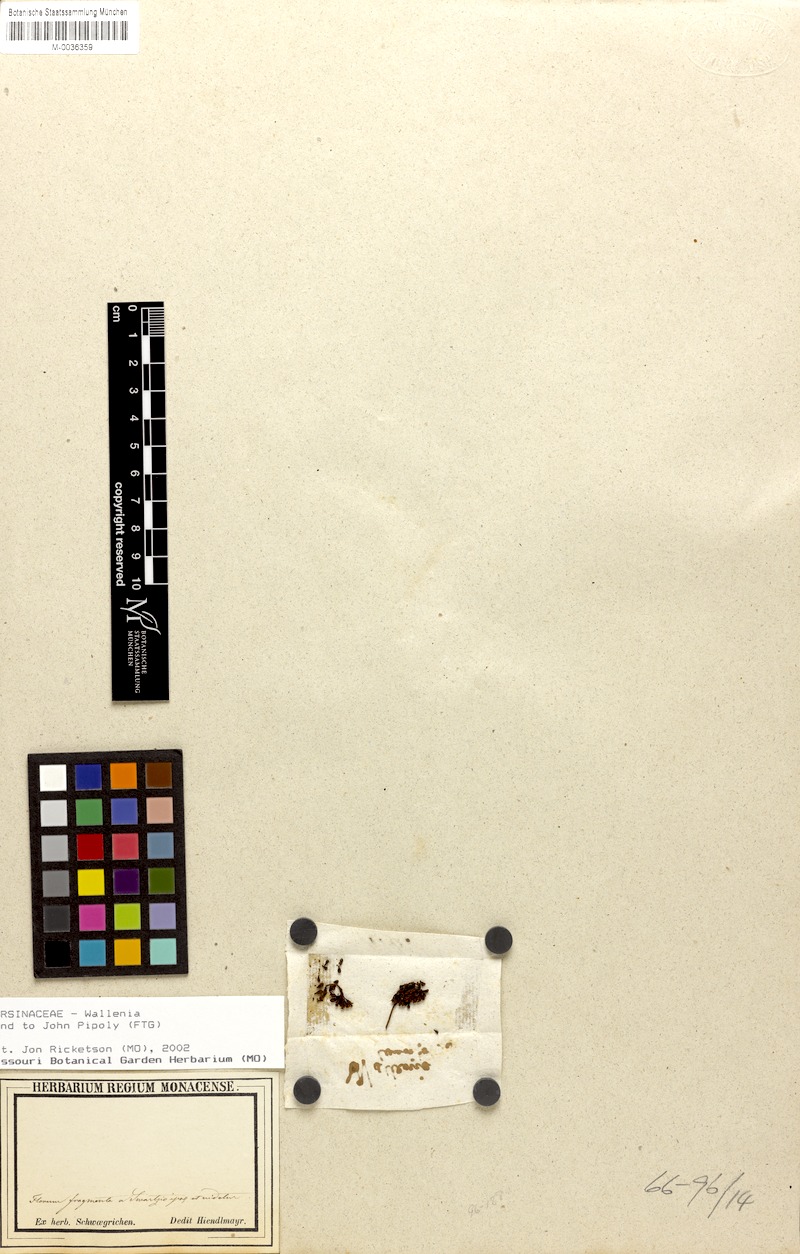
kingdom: Plantae
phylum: Tracheophyta
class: Magnoliopsida
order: Ericales
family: Primulaceae
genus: Petesiodes
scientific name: Petesiodes clusiifolium
